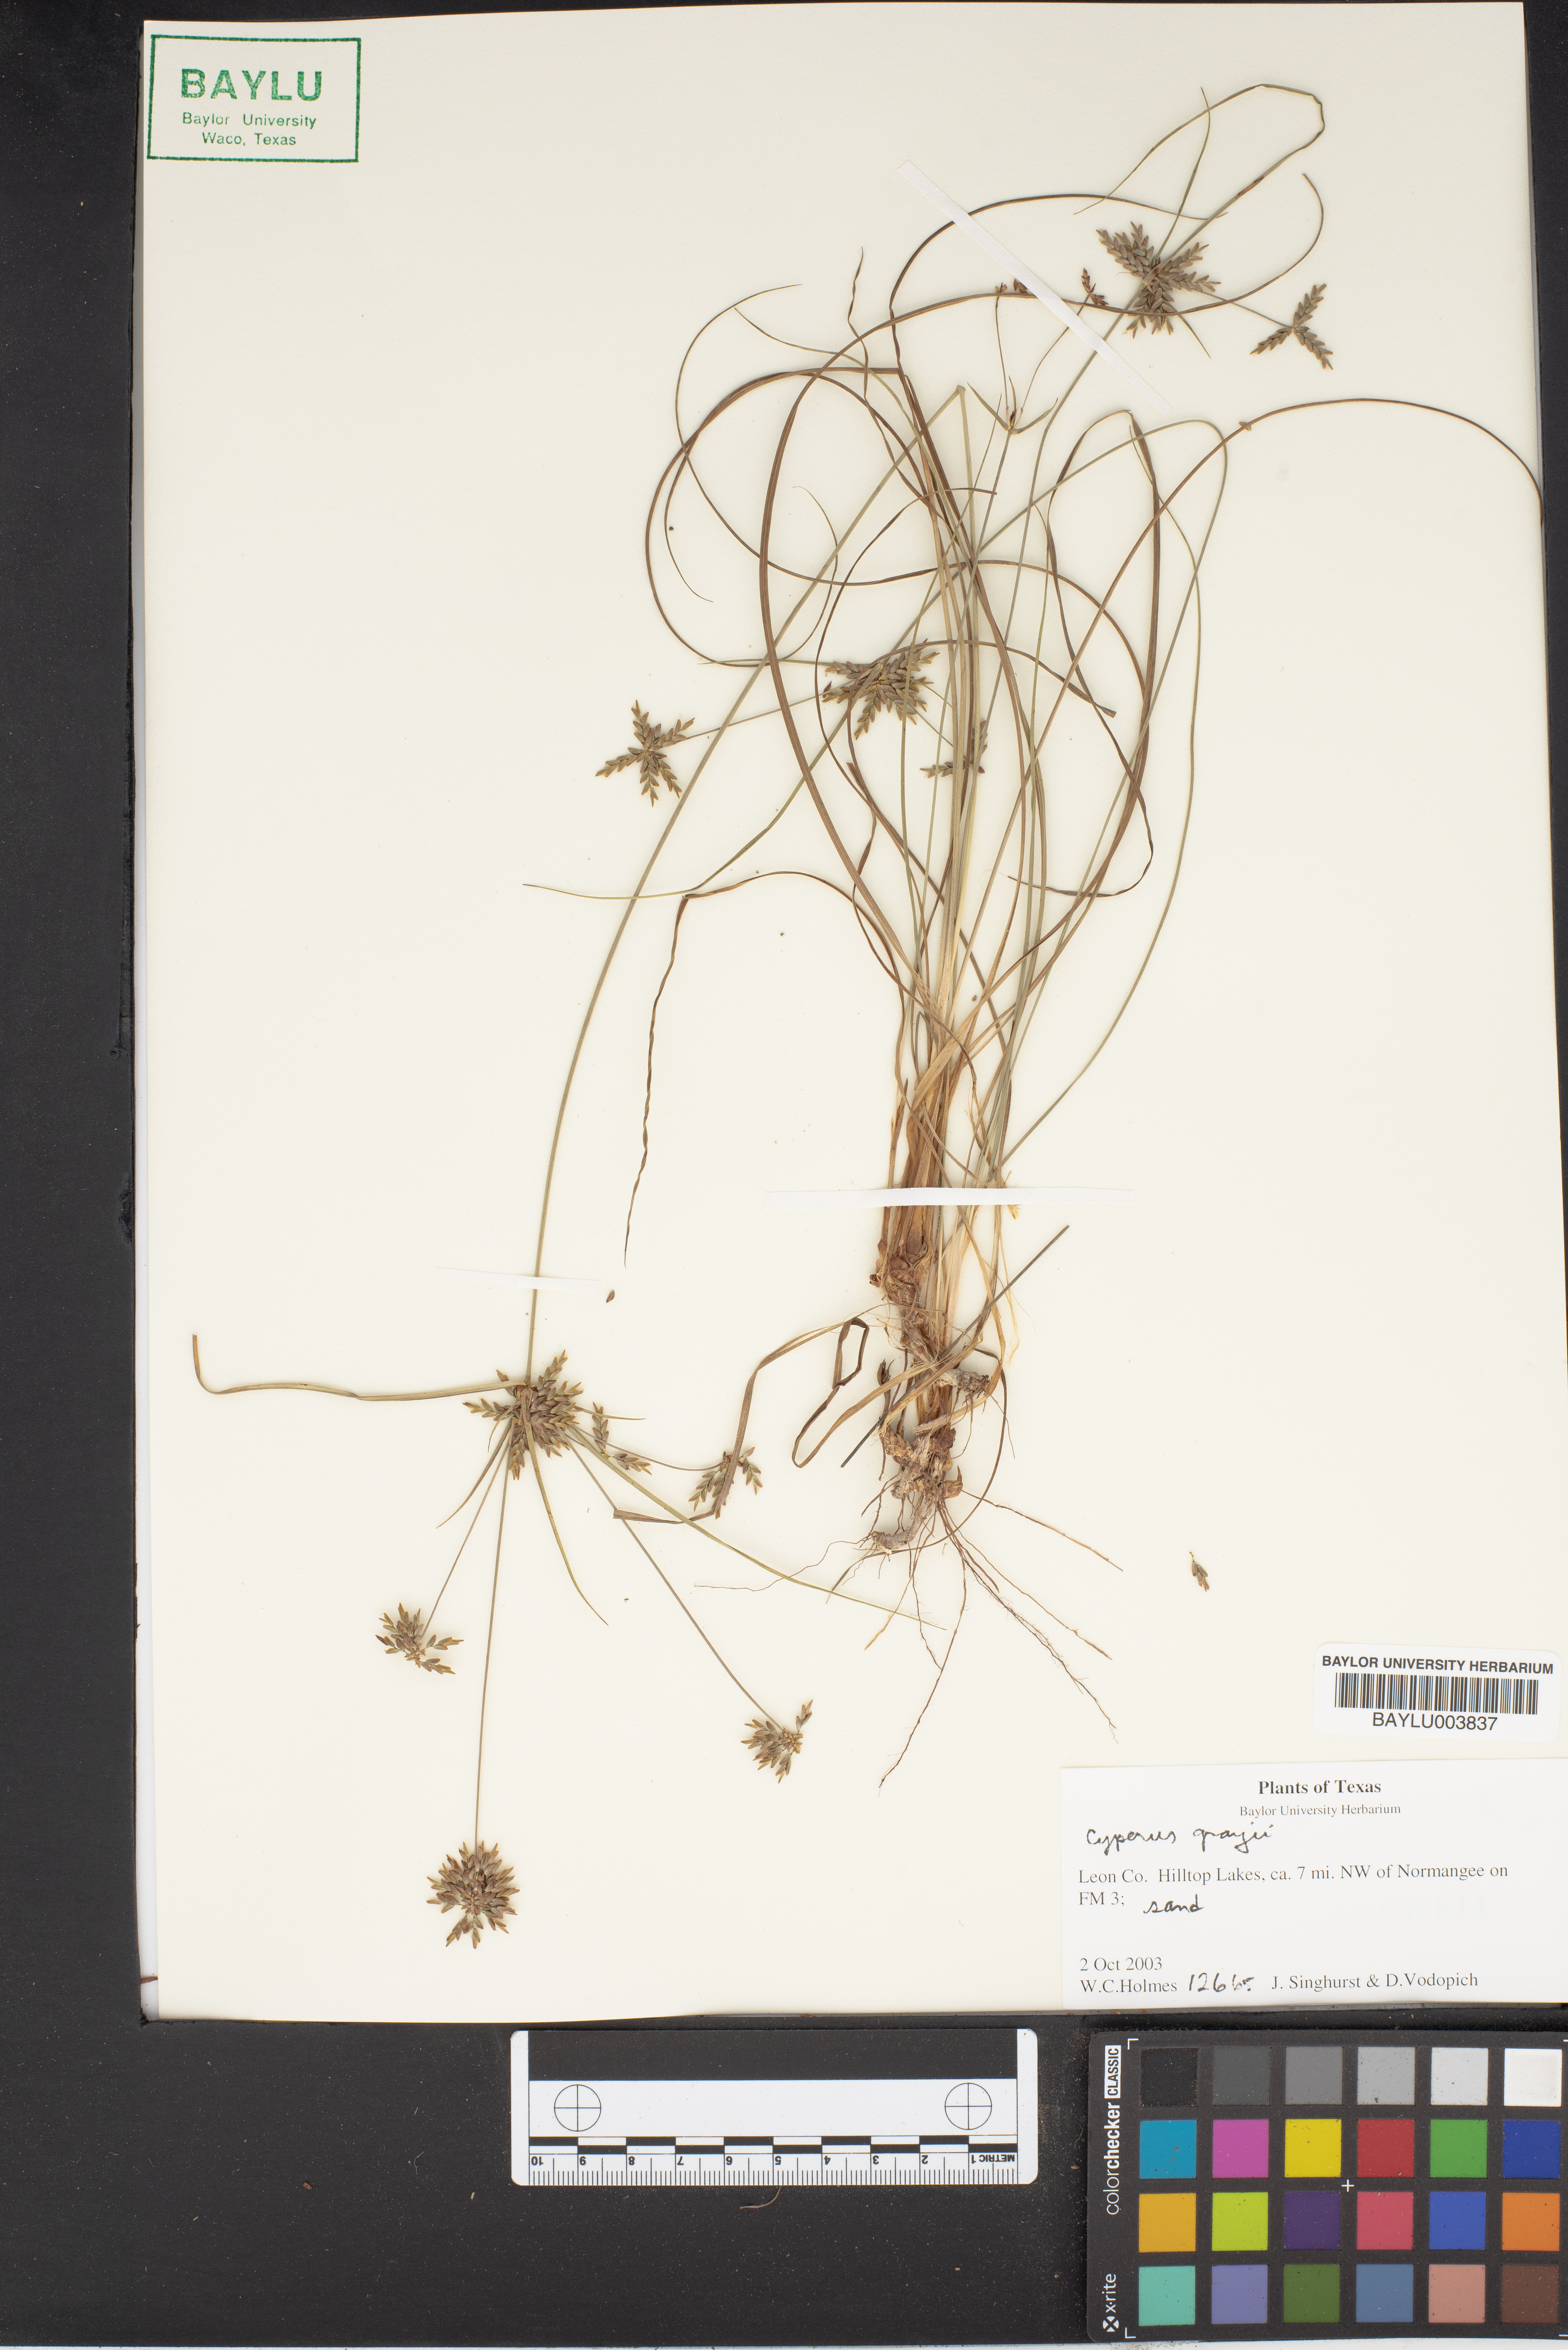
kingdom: Plantae
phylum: Tracheophyta
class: Liliopsida
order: Poales
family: Cyperaceae
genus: Cyperus
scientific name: Cyperus grayi
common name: Gray's flat sedge
